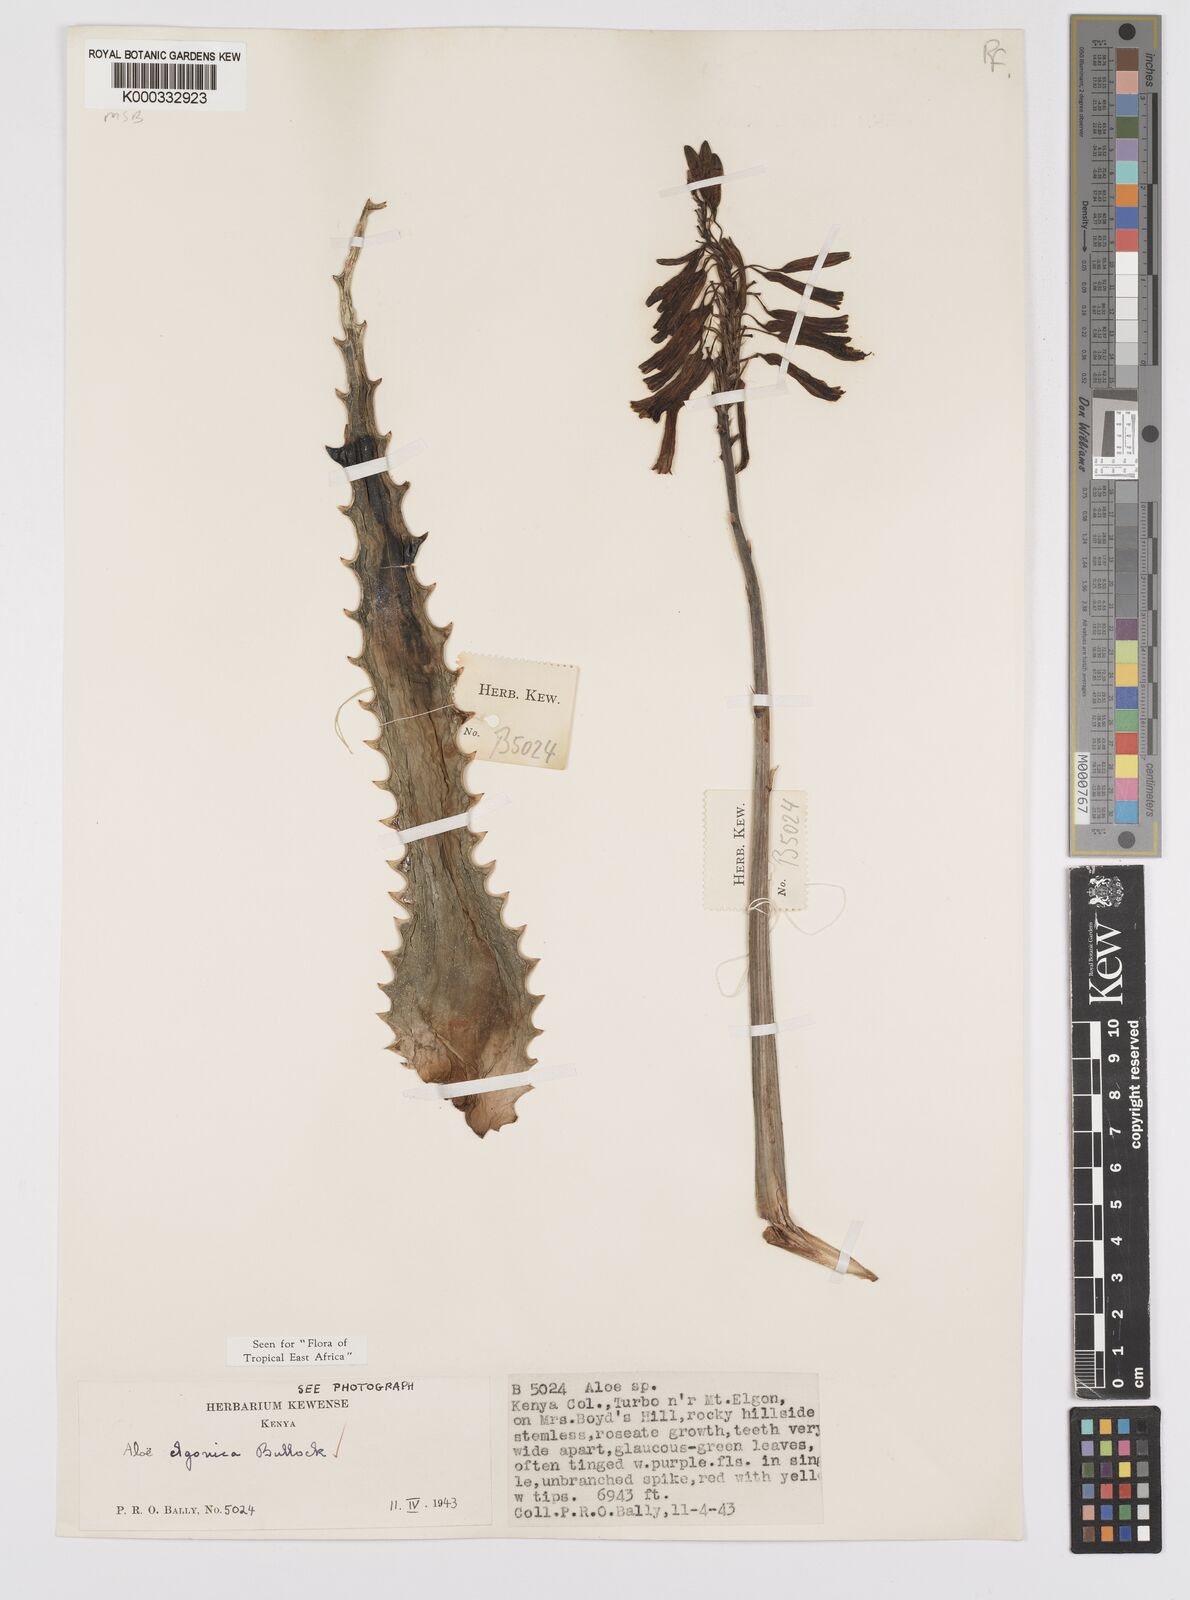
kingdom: Plantae
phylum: Tracheophyta
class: Liliopsida
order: Asparagales
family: Asphodelaceae
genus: Aloe
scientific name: Aloe elgonica
